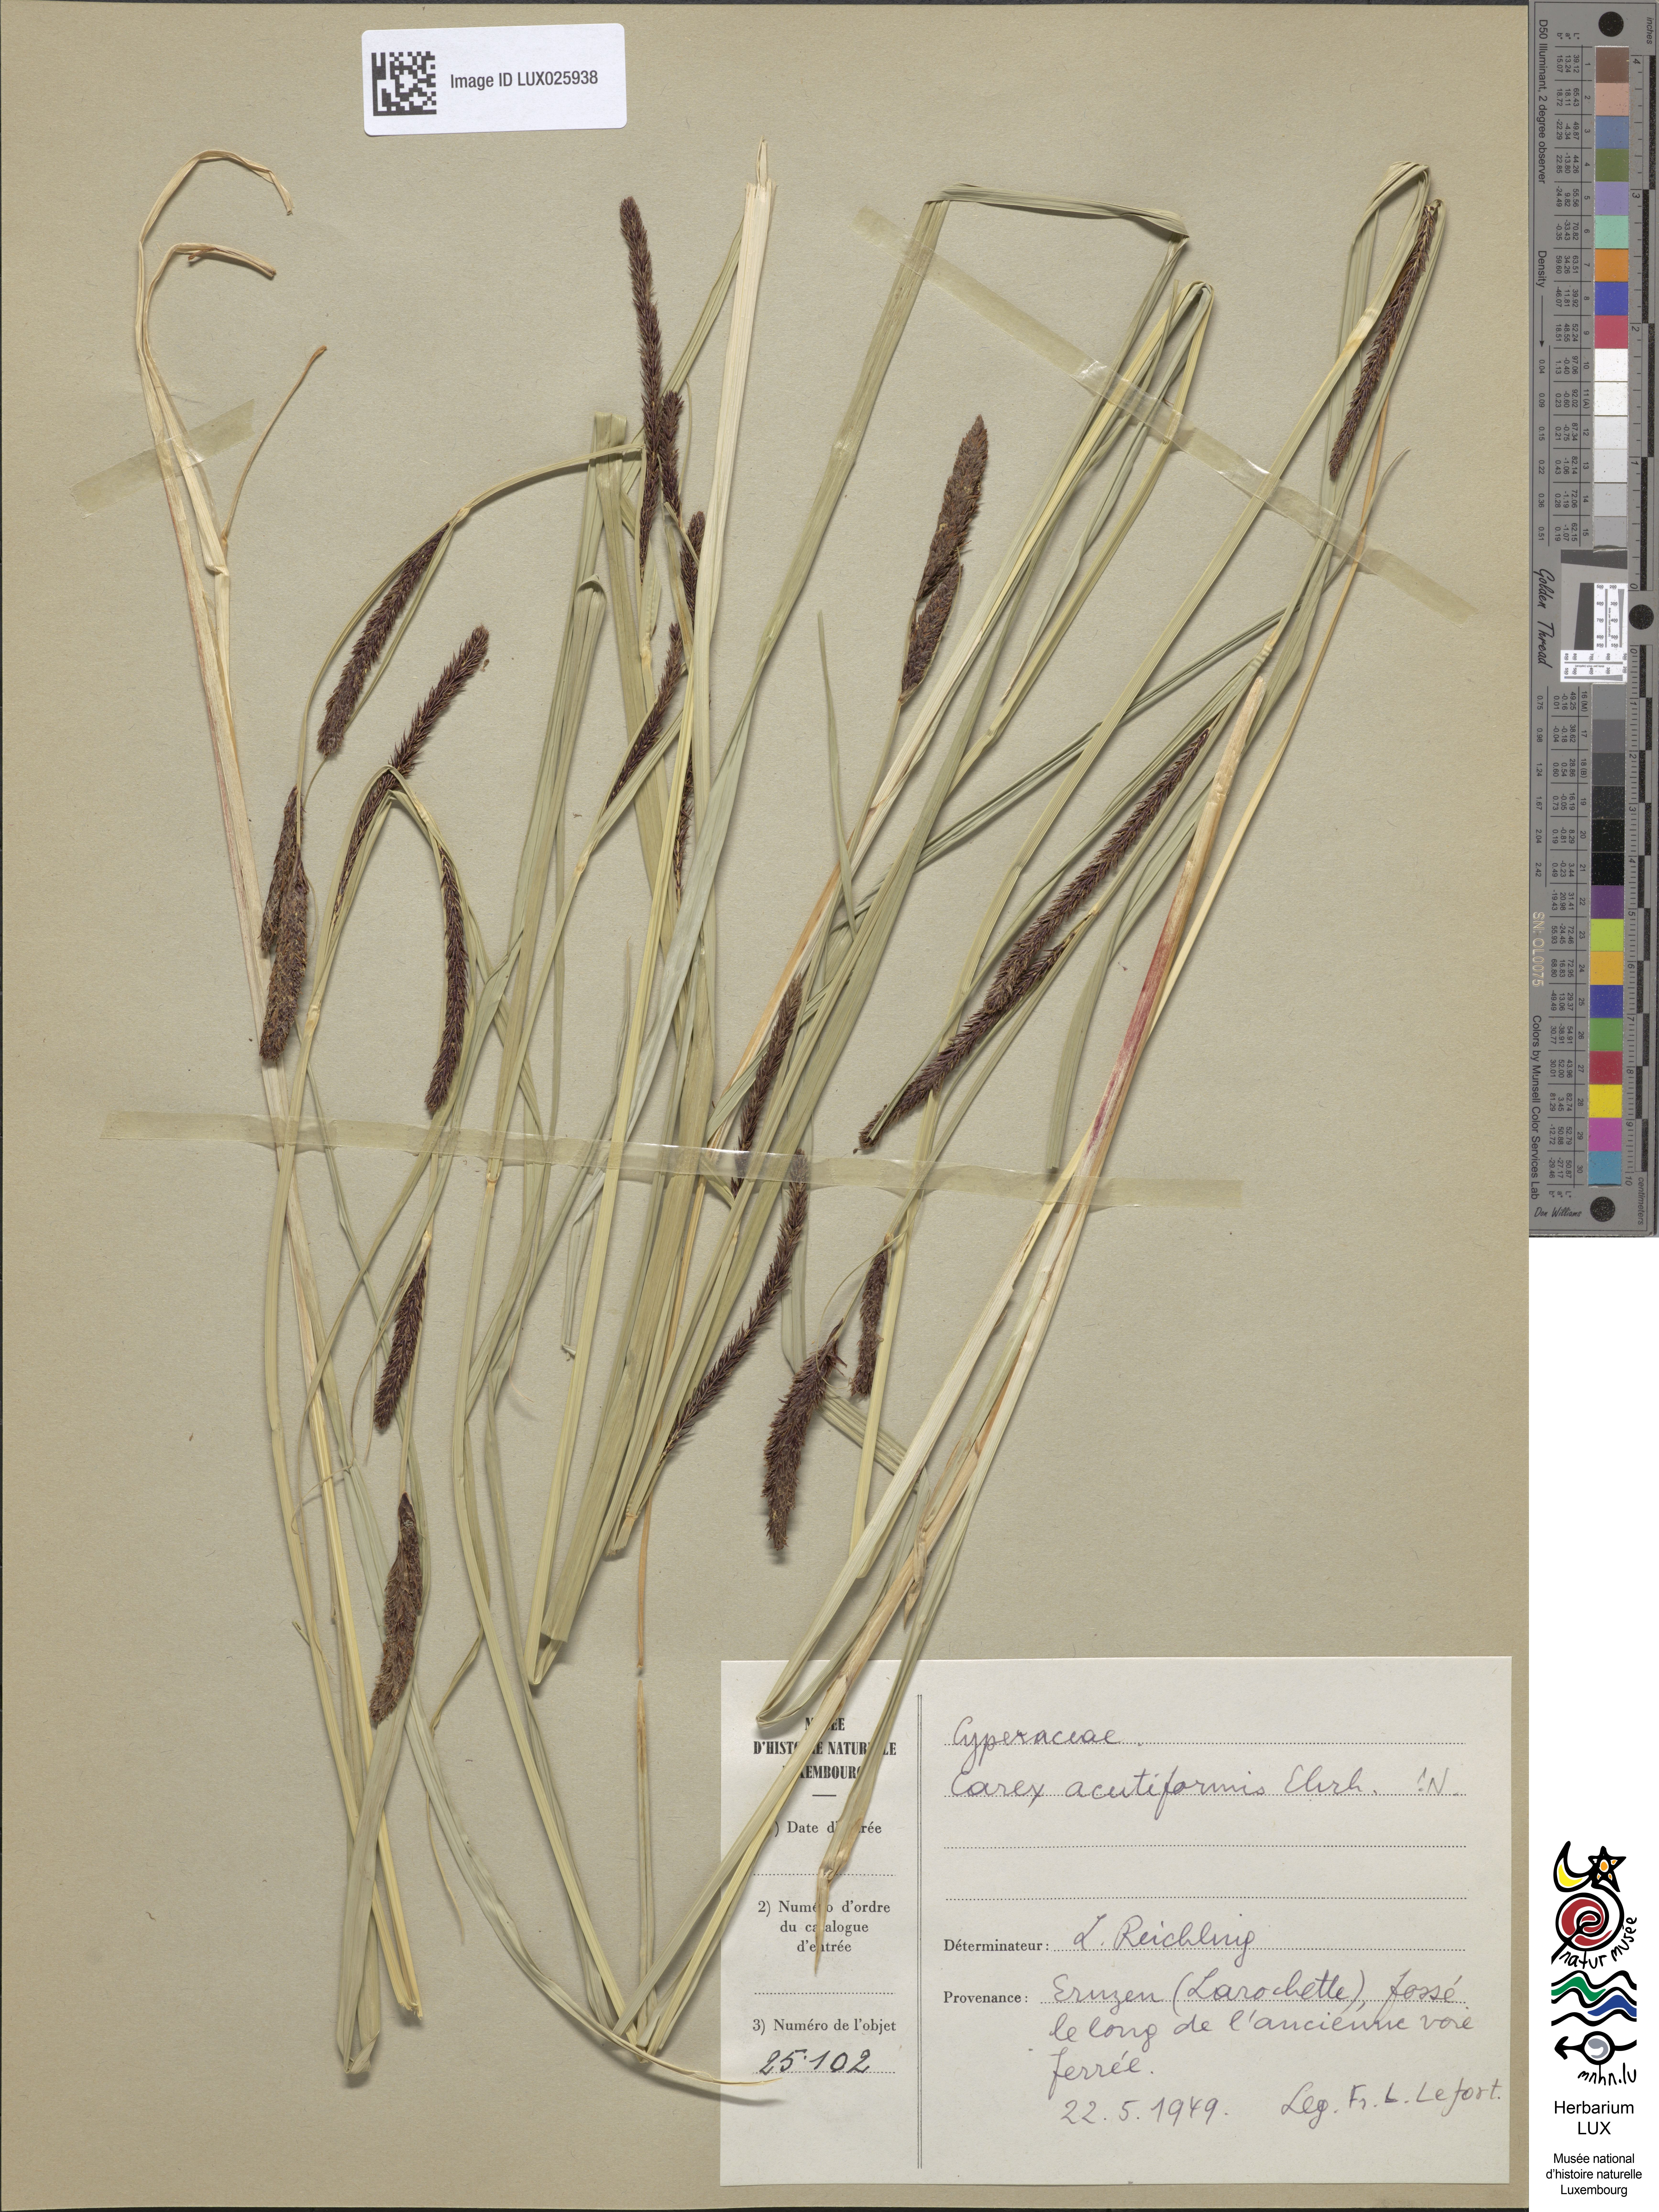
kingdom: Plantae
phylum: Tracheophyta
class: Liliopsida
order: Poales
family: Cyperaceae
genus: Carex
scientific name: Carex acutiformis
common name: Lesser pond-sedge
